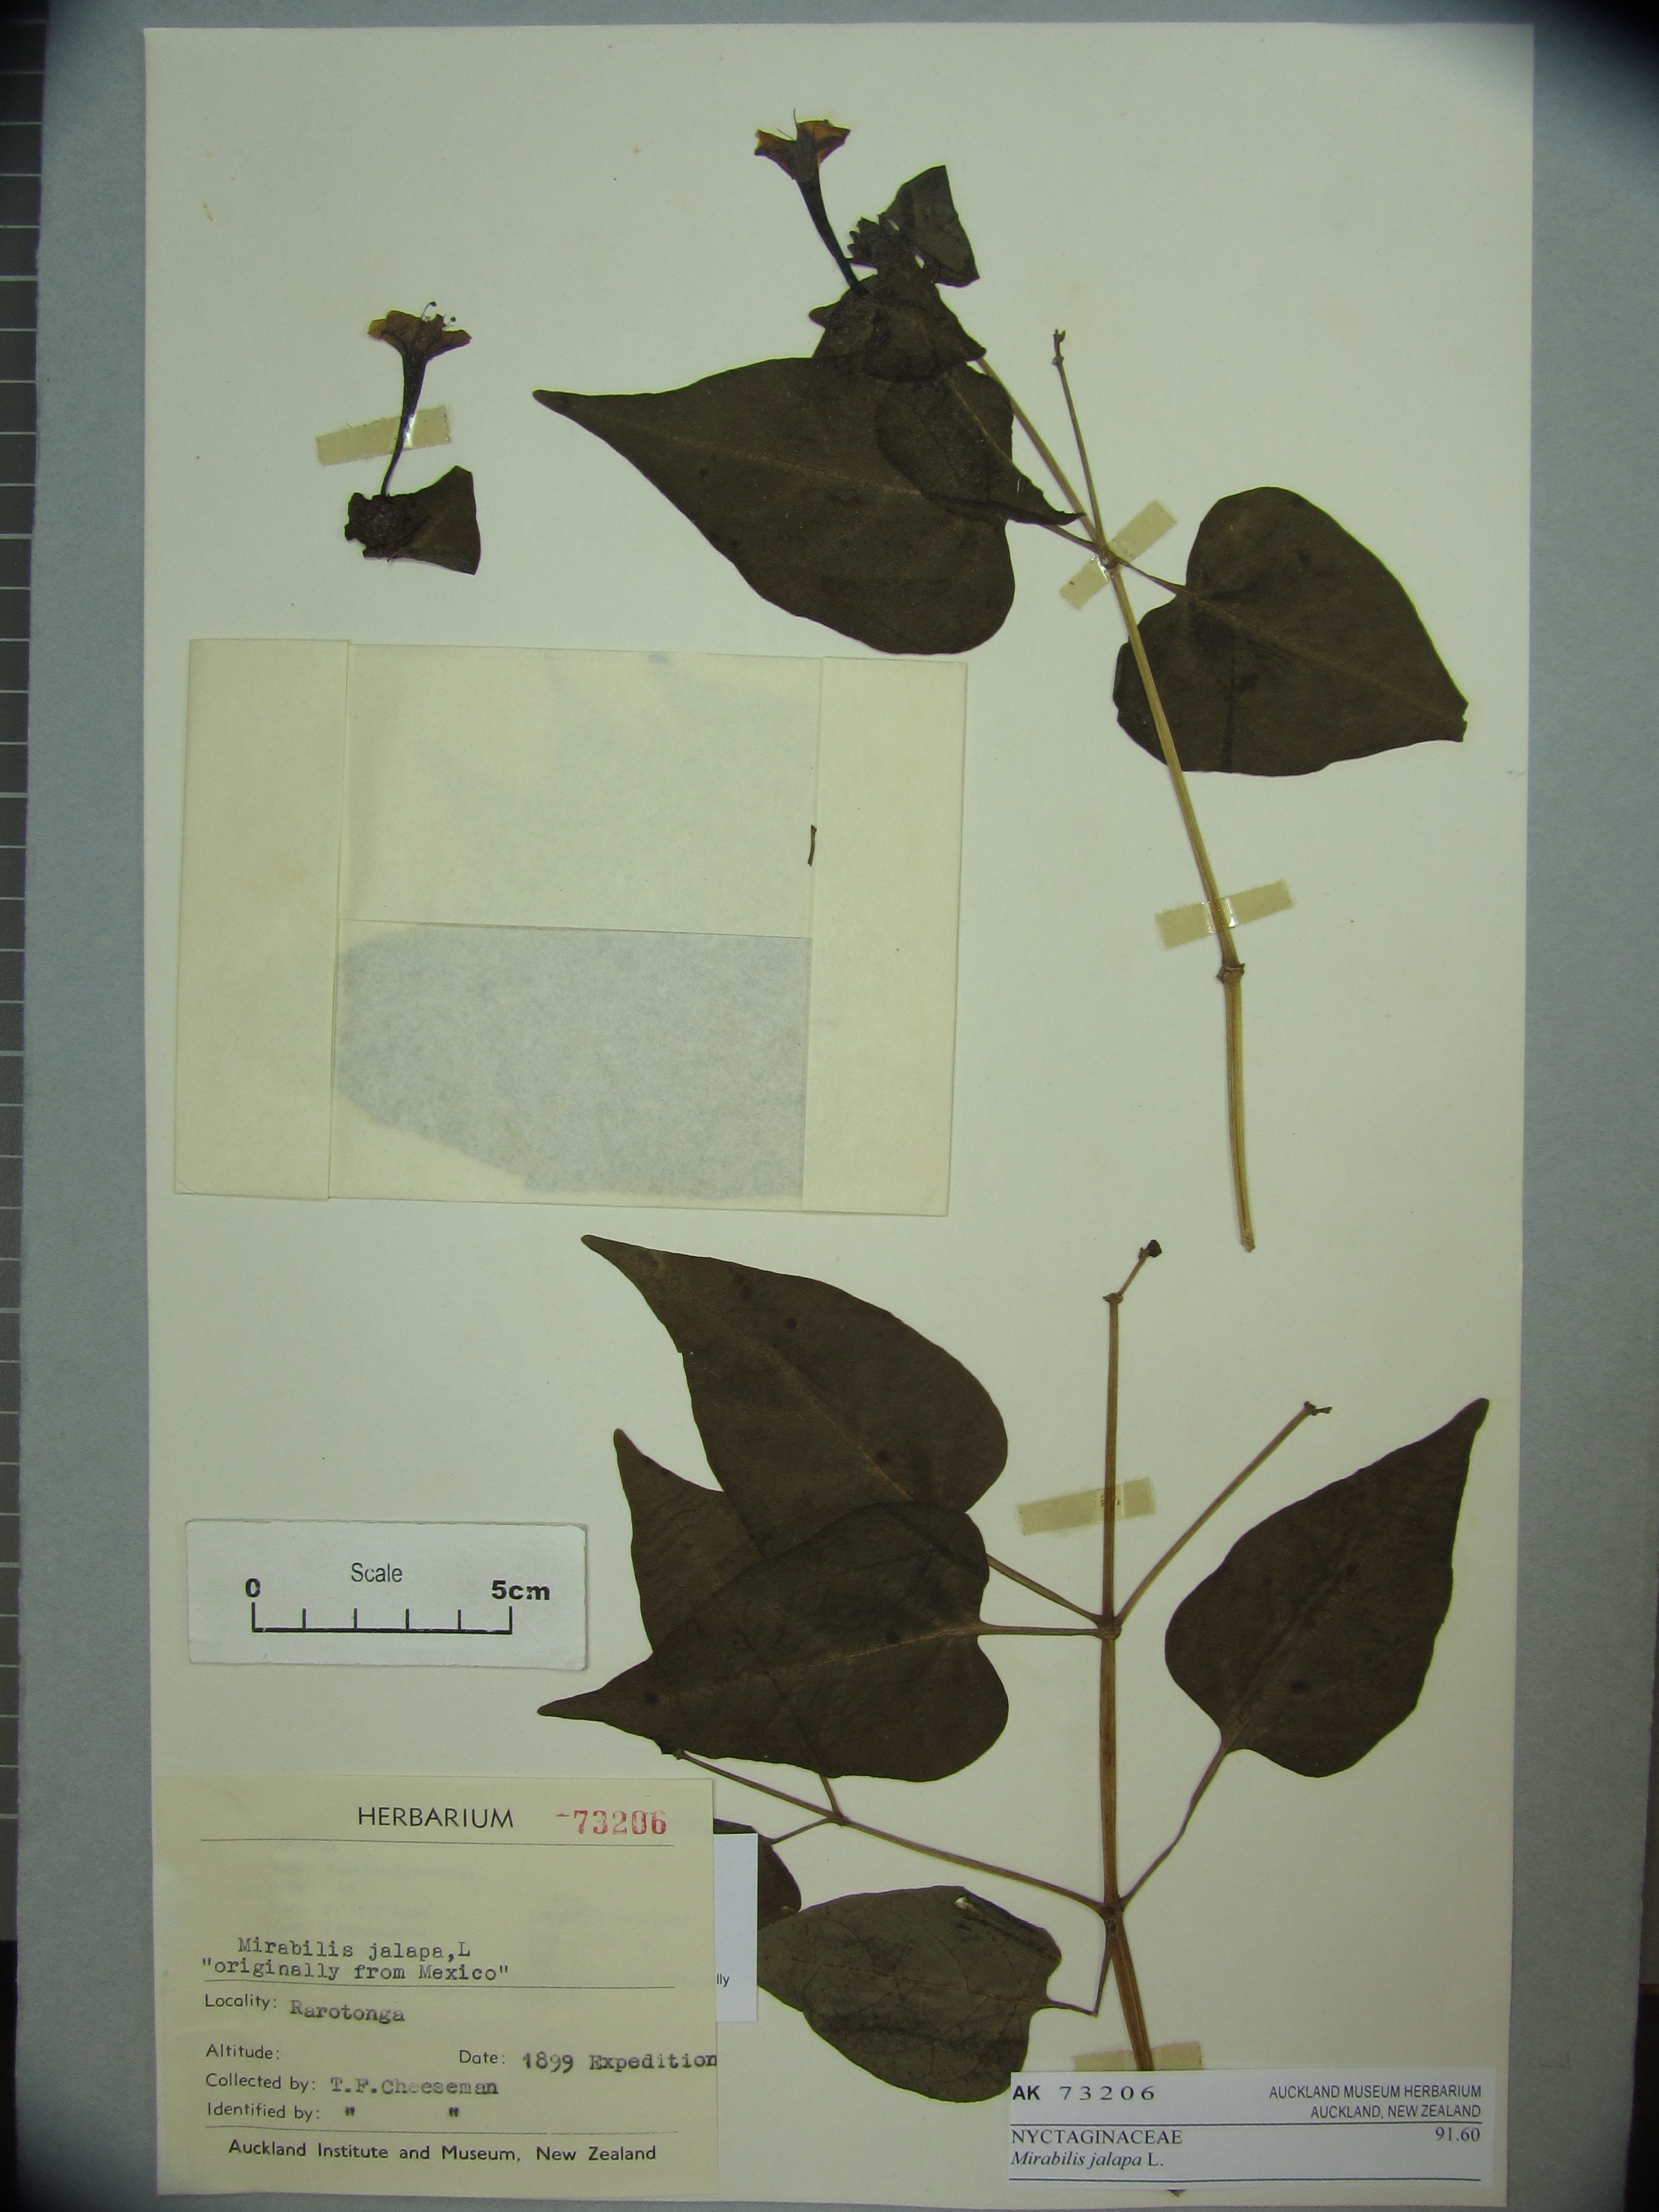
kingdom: Plantae
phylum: Tracheophyta
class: Magnoliopsida
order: Caryophyllales
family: Nyctaginaceae
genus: Mirabilis
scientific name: Mirabilis jalapa
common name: Marvel-of-peru
